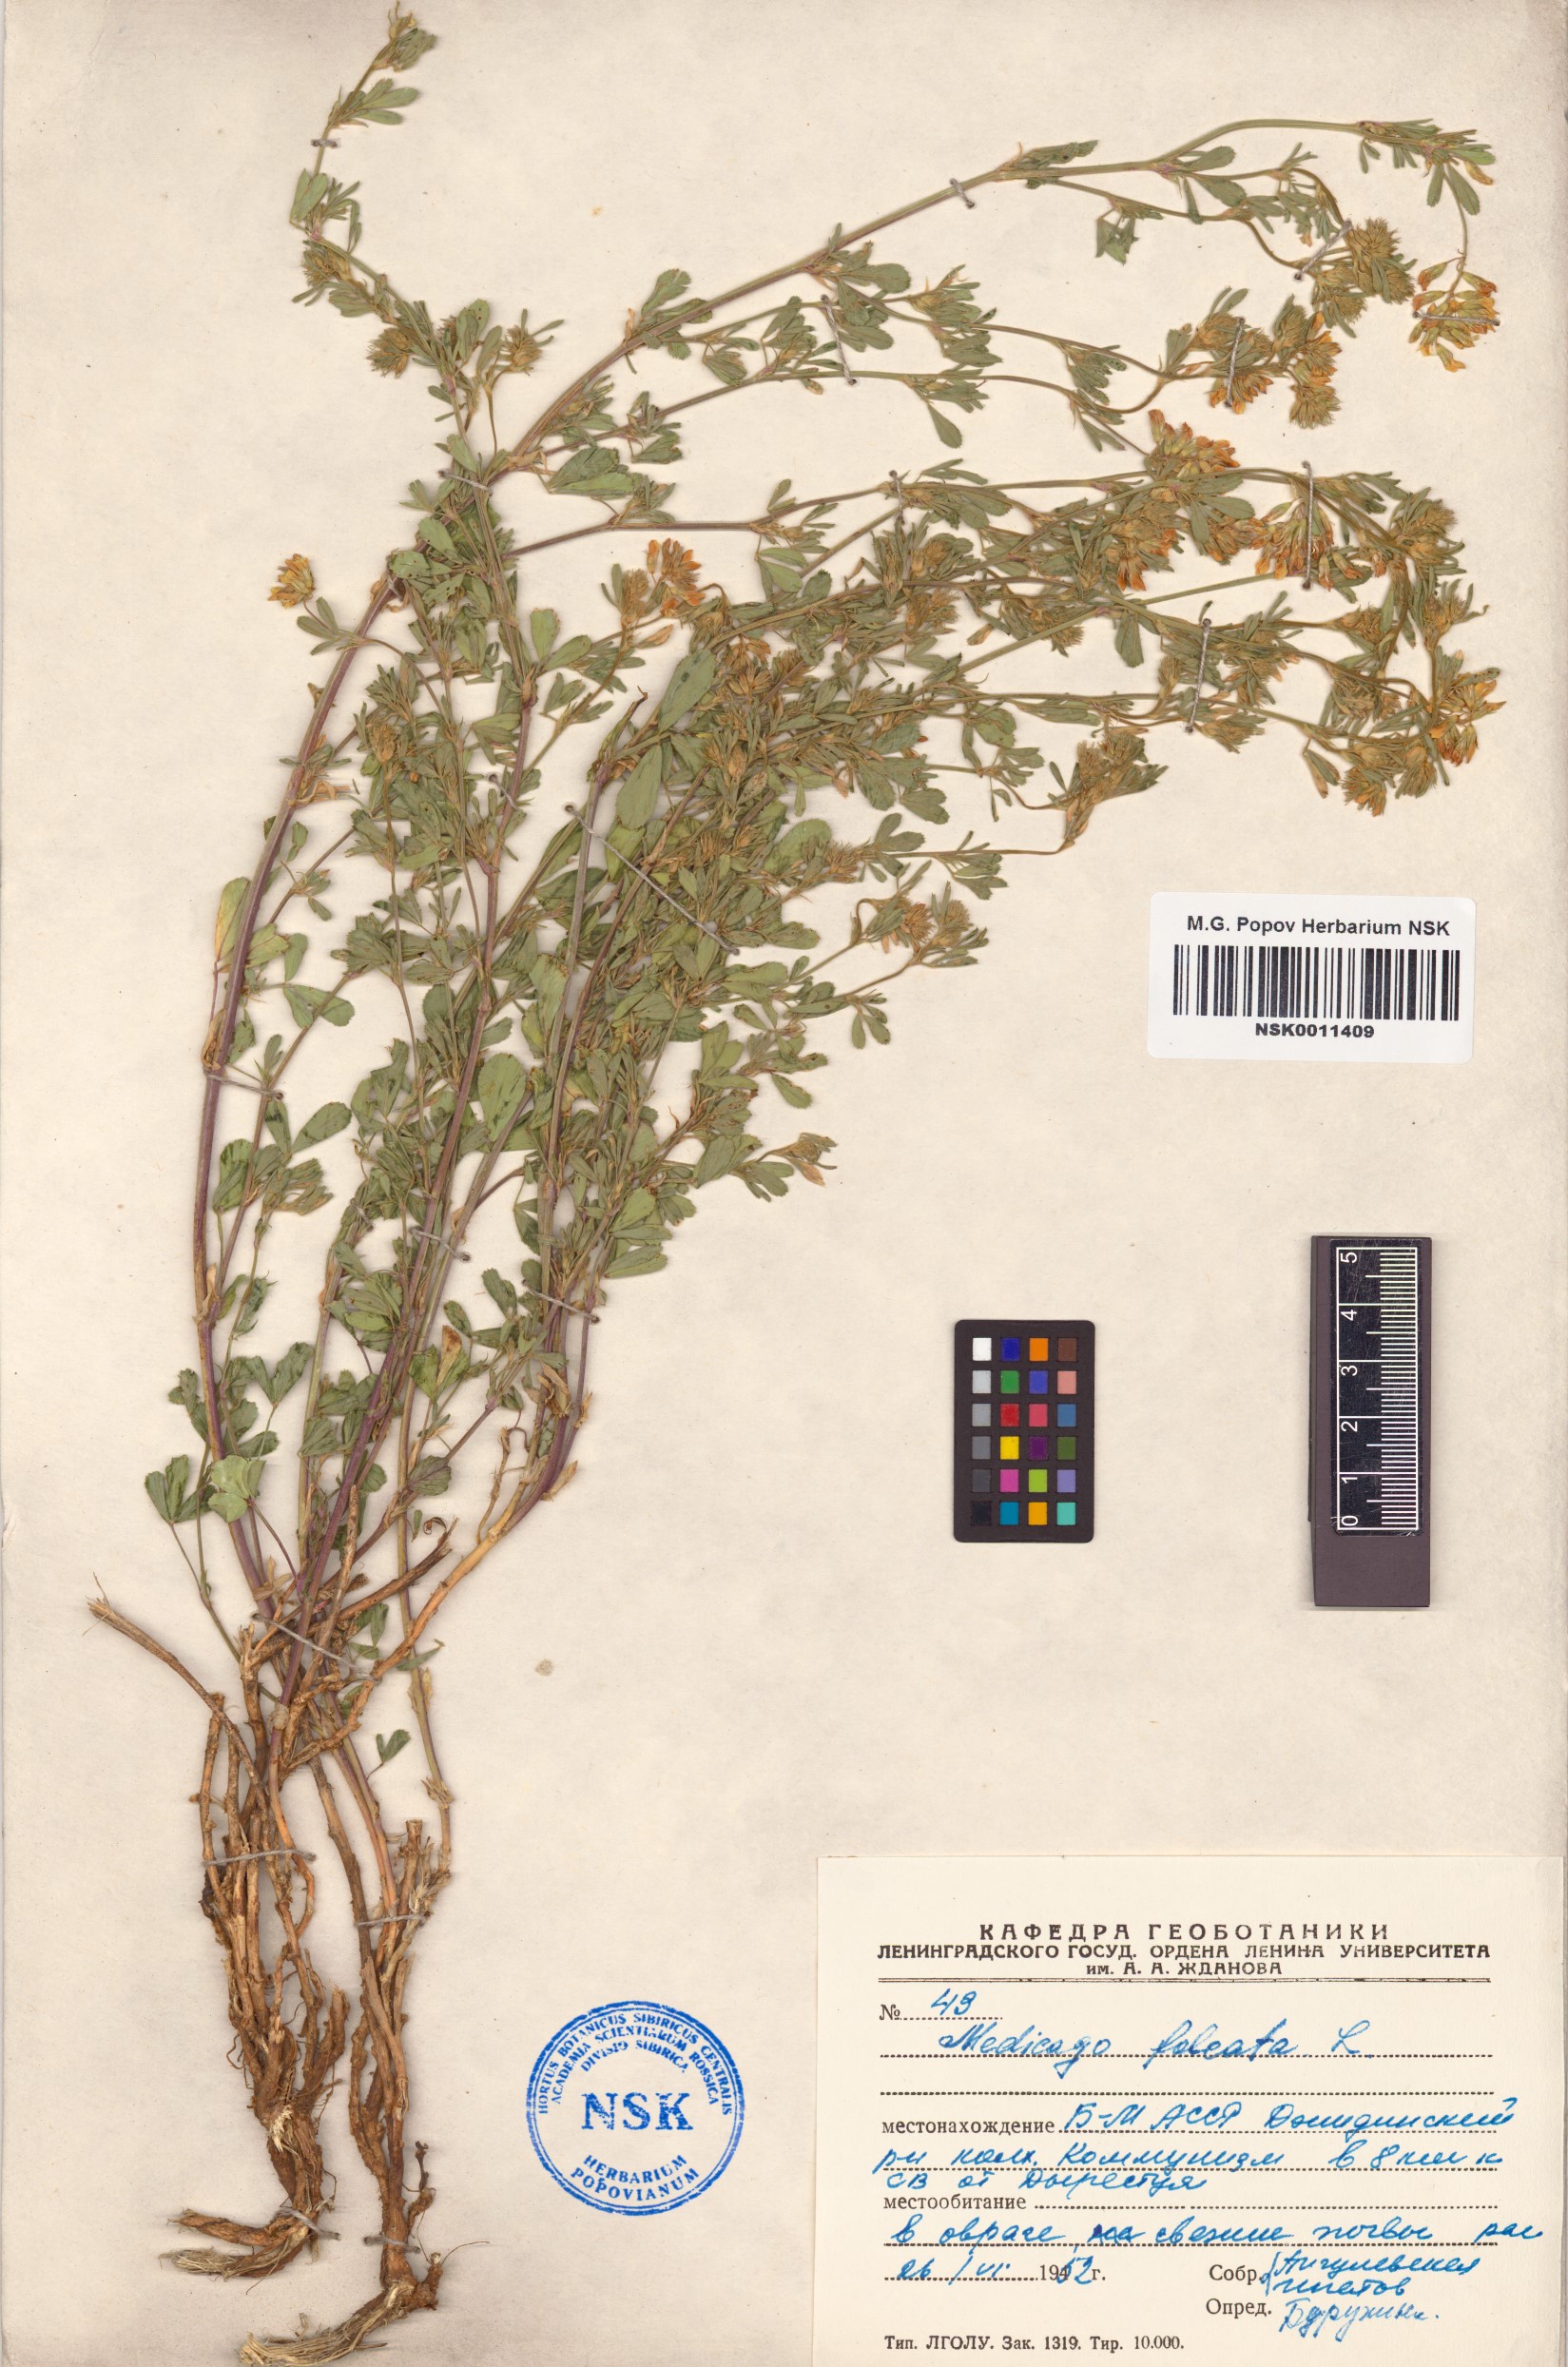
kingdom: Plantae
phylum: Tracheophyta
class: Magnoliopsida
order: Fabales
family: Fabaceae
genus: Medicago
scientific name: Medicago falcata
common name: Sickle medick
